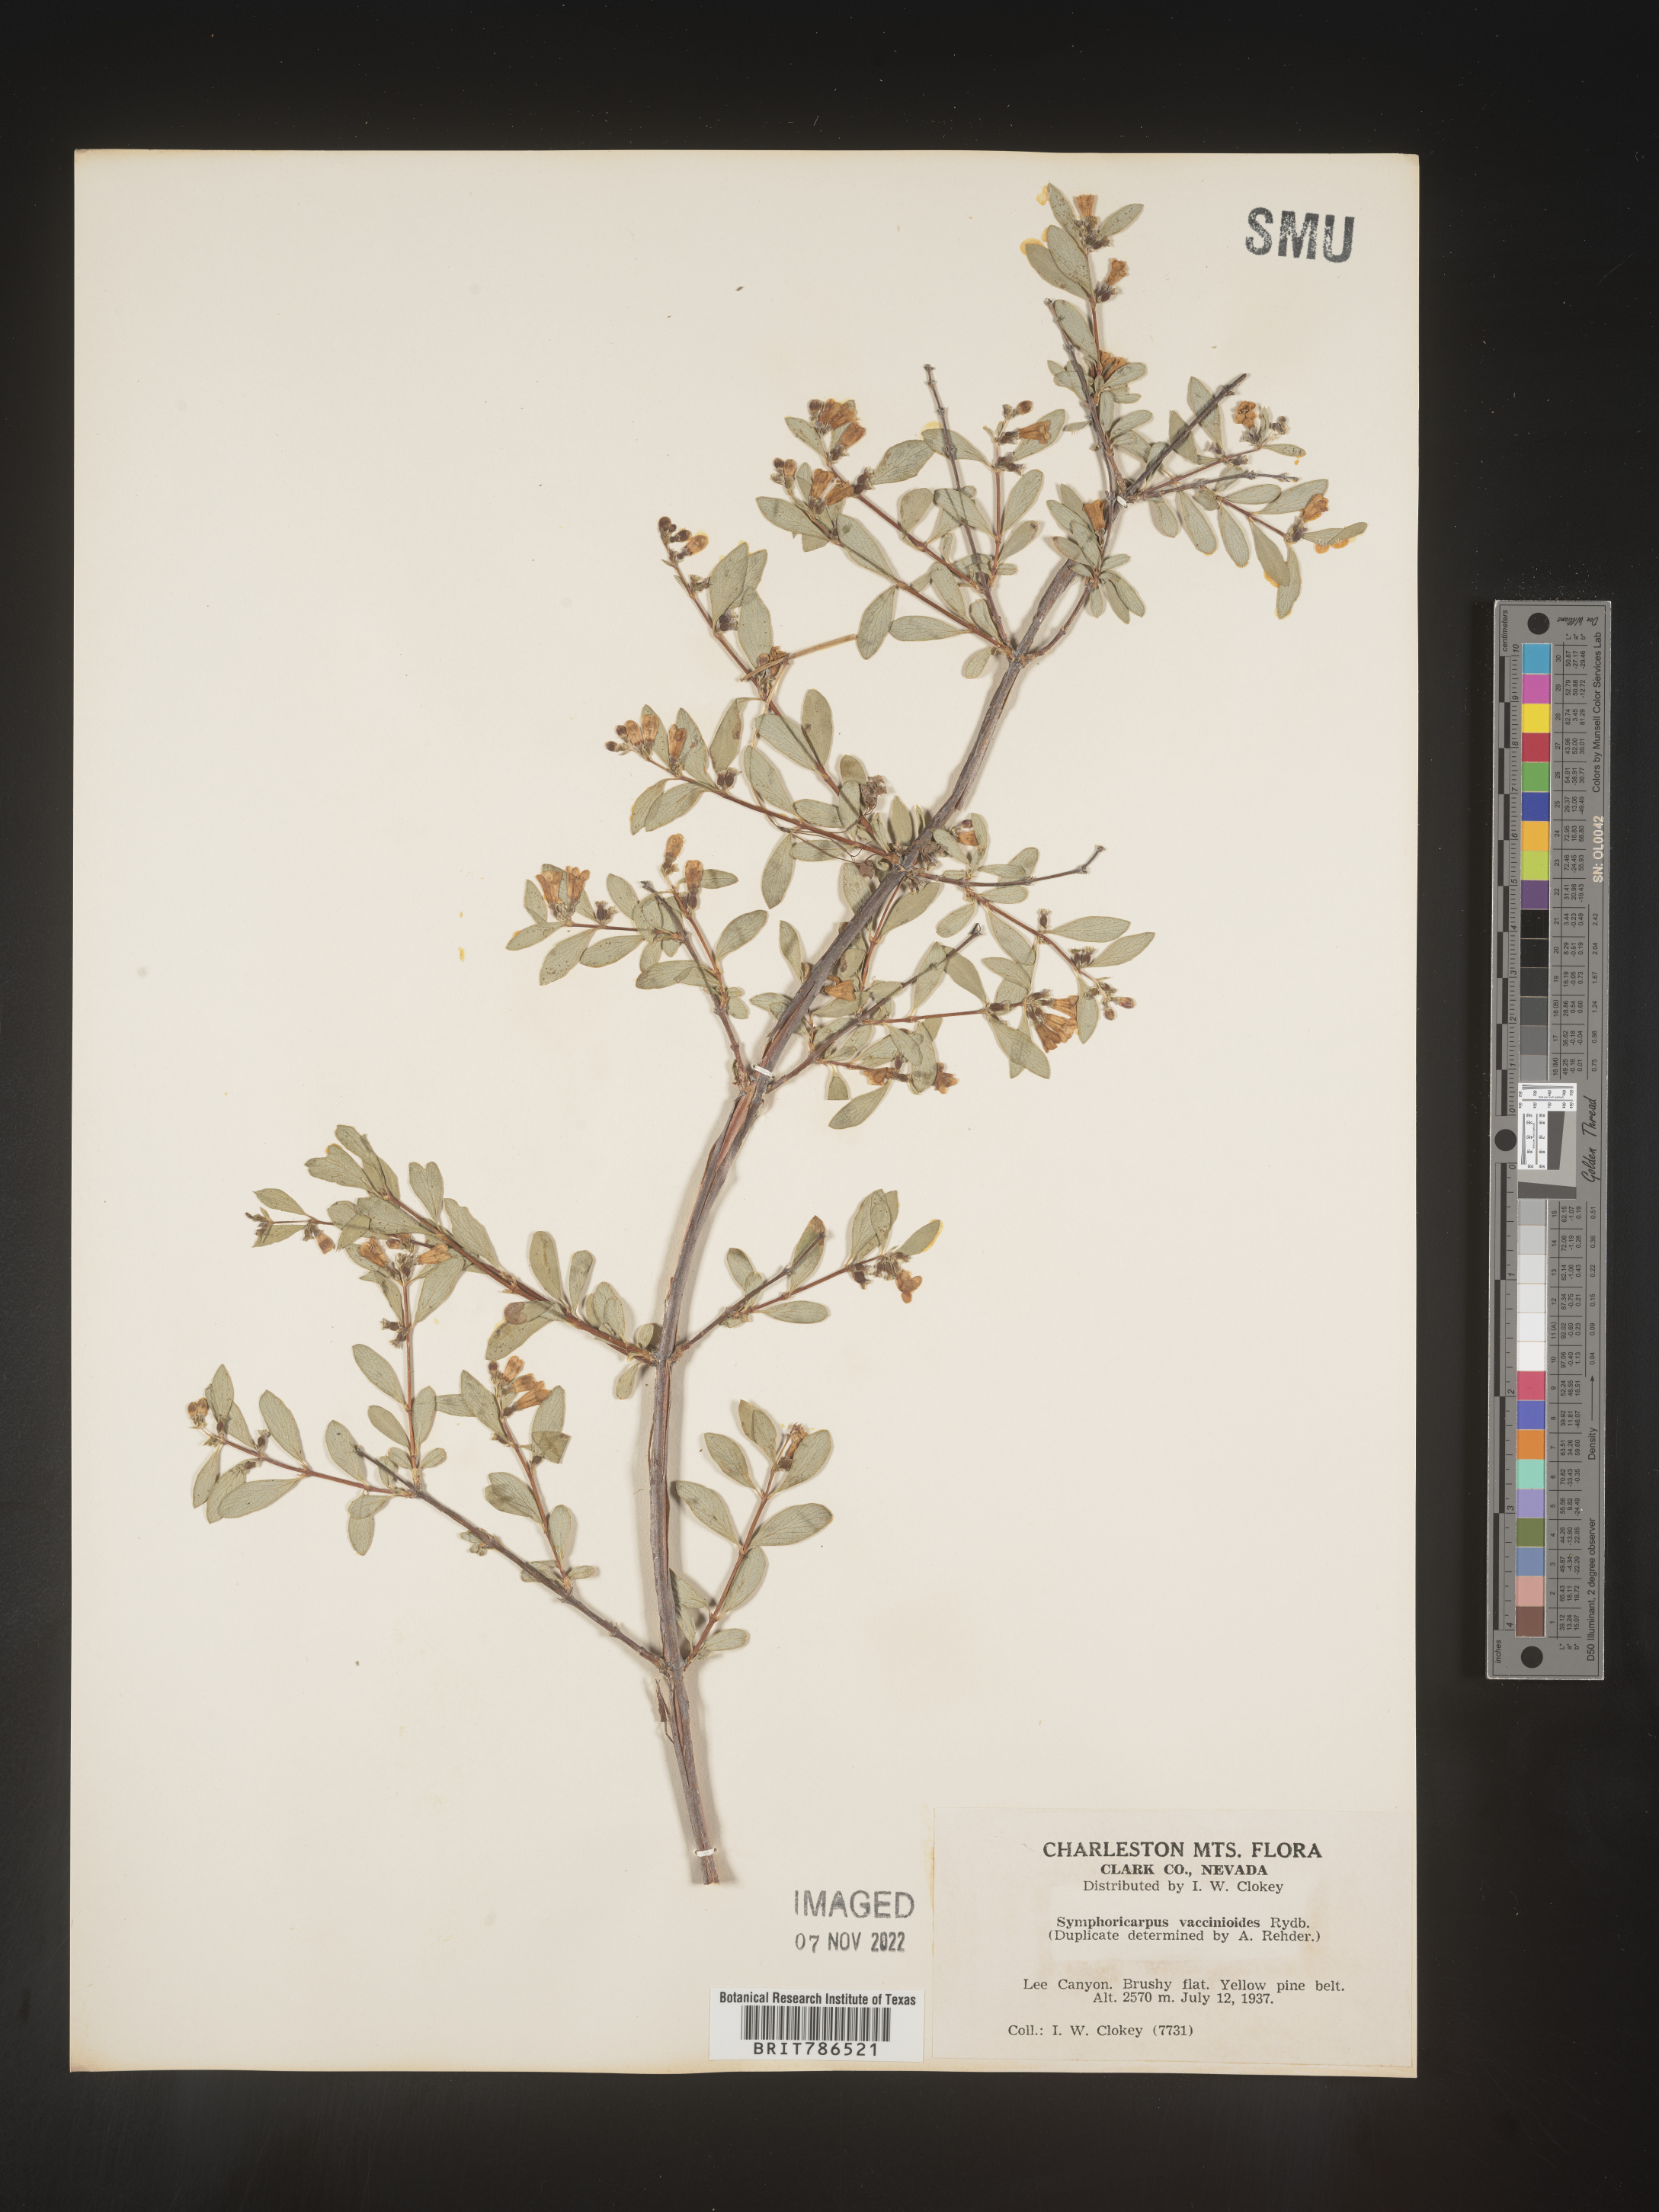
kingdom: Plantae
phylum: Tracheophyta
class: Magnoliopsida
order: Dipsacales
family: Caprifoliaceae
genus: Symphoricarpos
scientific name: Symphoricarpos
